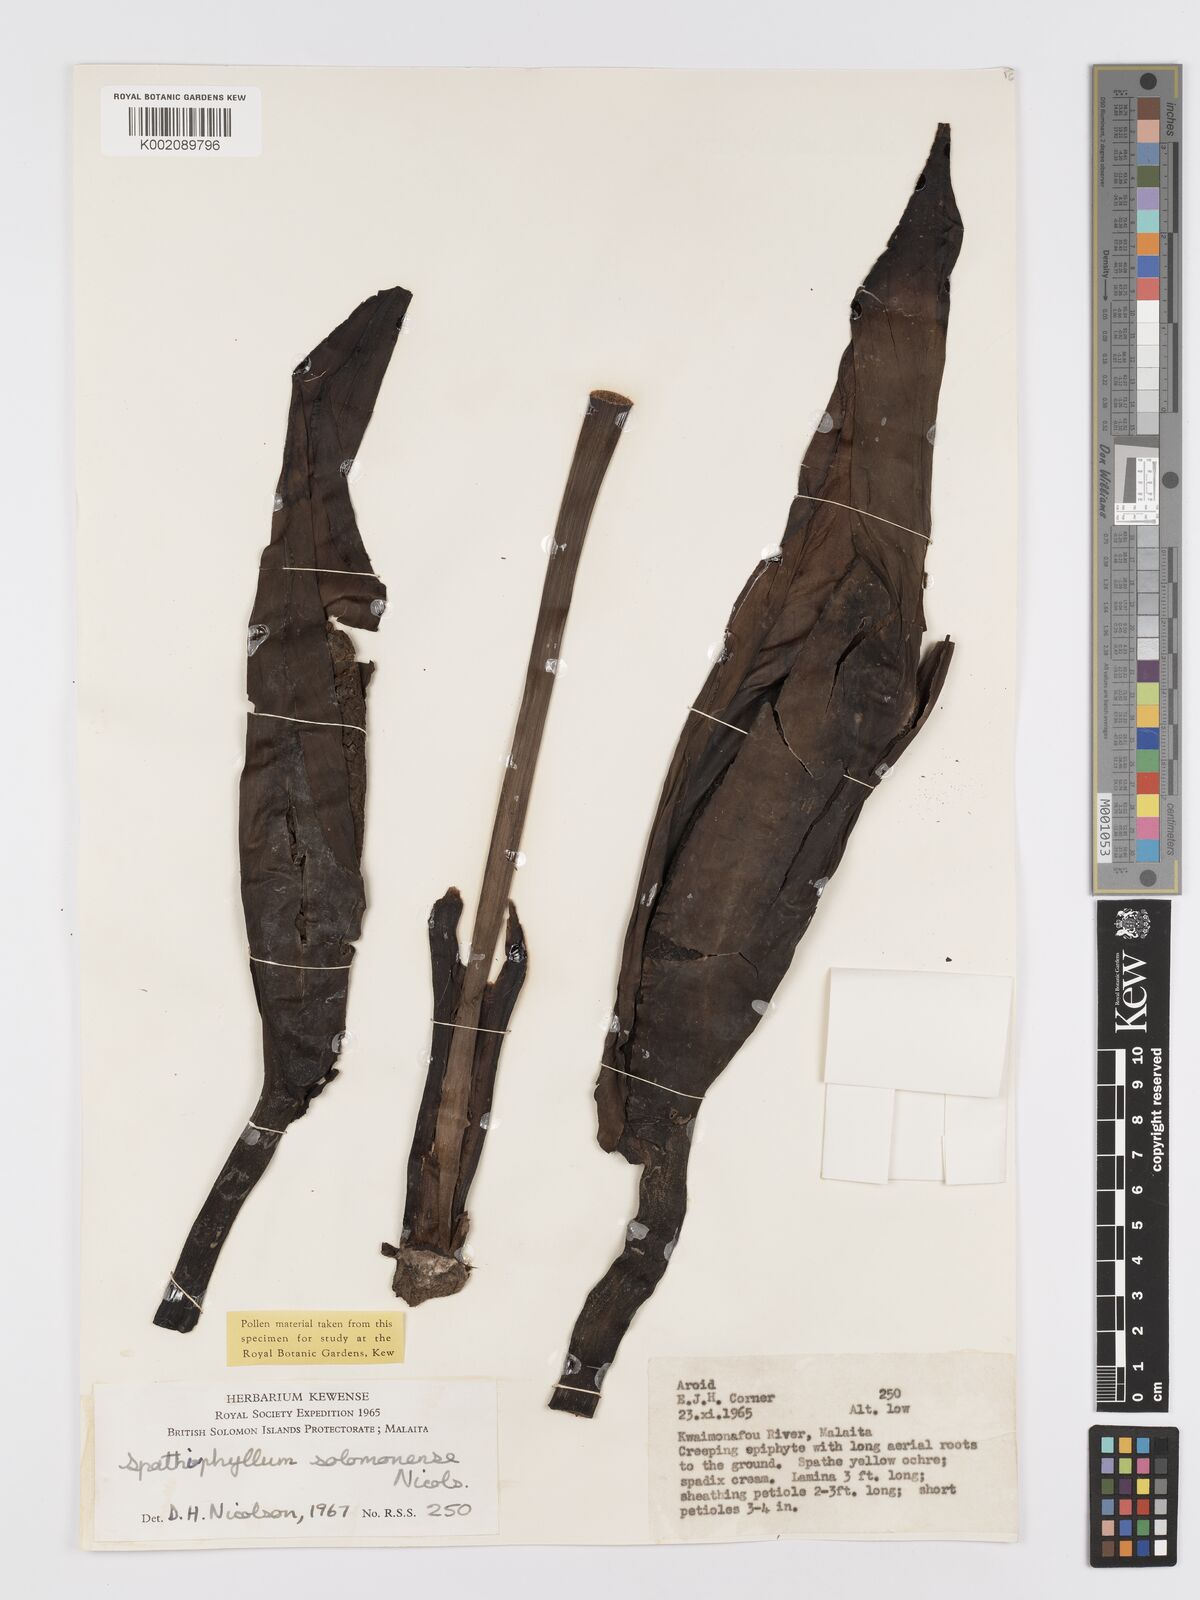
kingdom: Plantae
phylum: Tracheophyta
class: Liliopsida
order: Alismatales
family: Araceae
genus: Spathiphyllum
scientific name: Spathiphyllum solomonense
